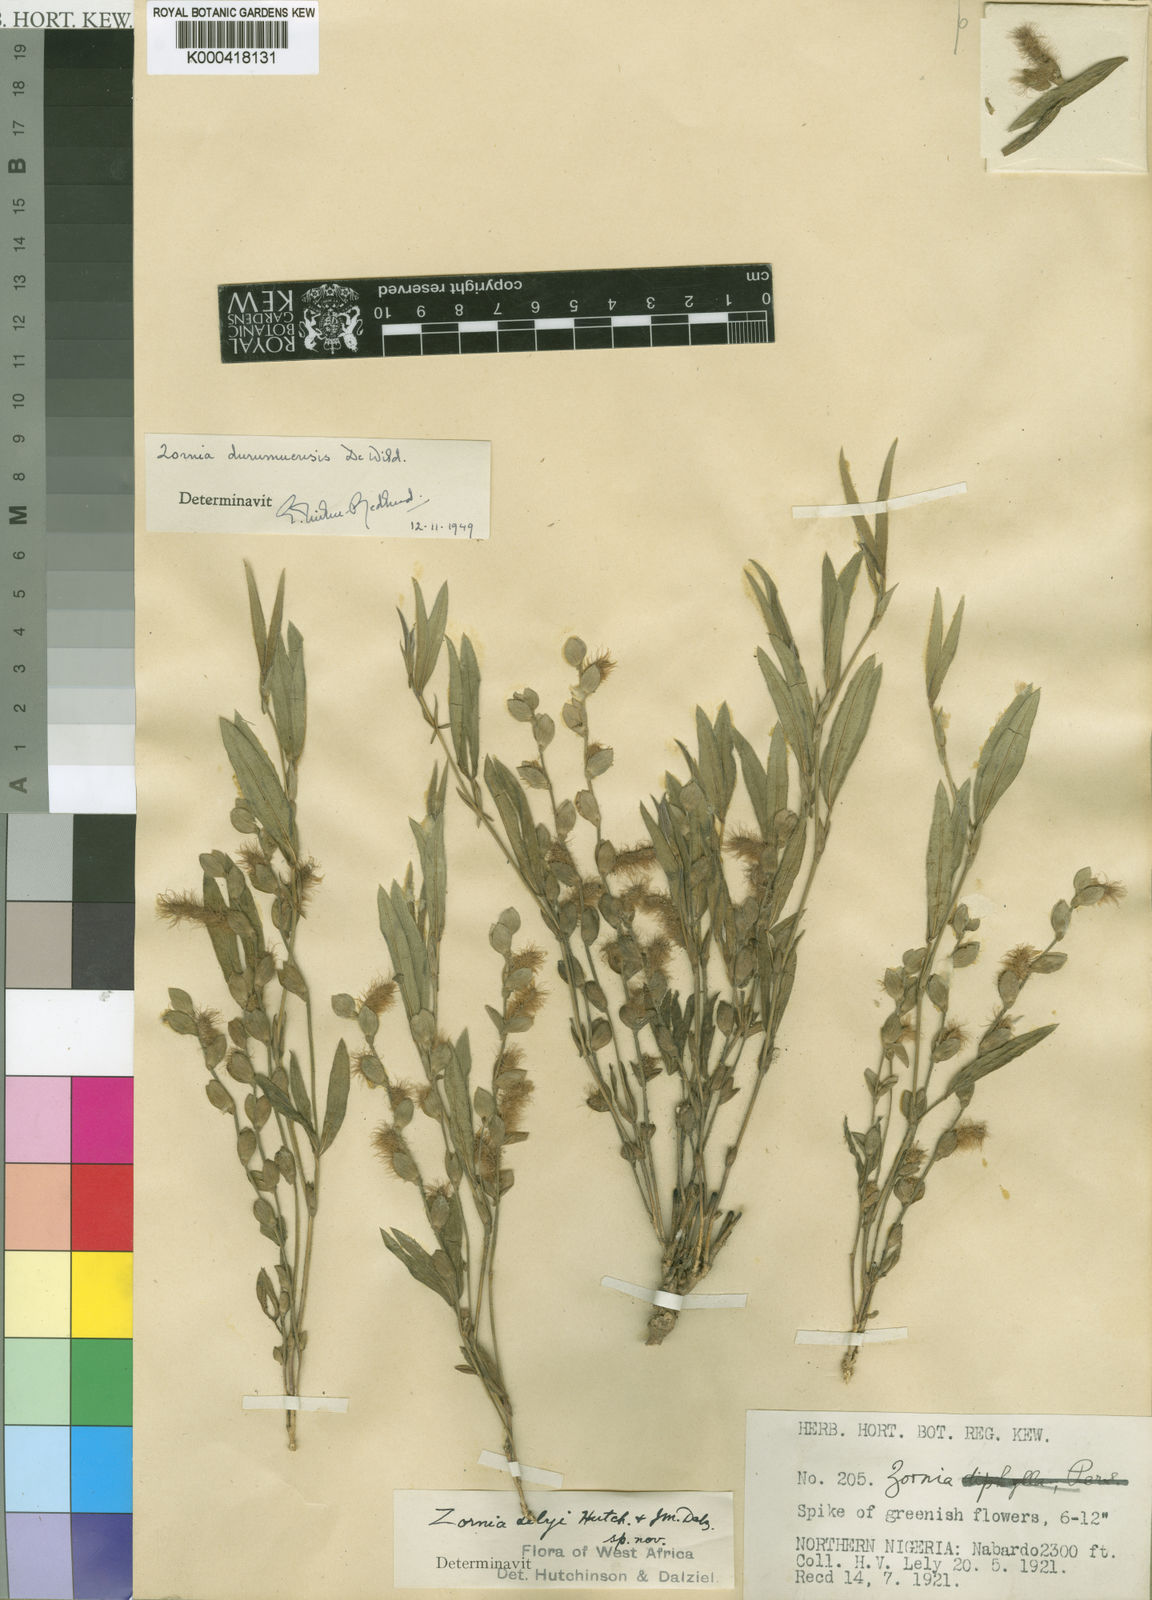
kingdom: Plantae
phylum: Tracheophyta
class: Magnoliopsida
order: Fabales
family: Fabaceae
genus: Zornia
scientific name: Zornia durumuensis
